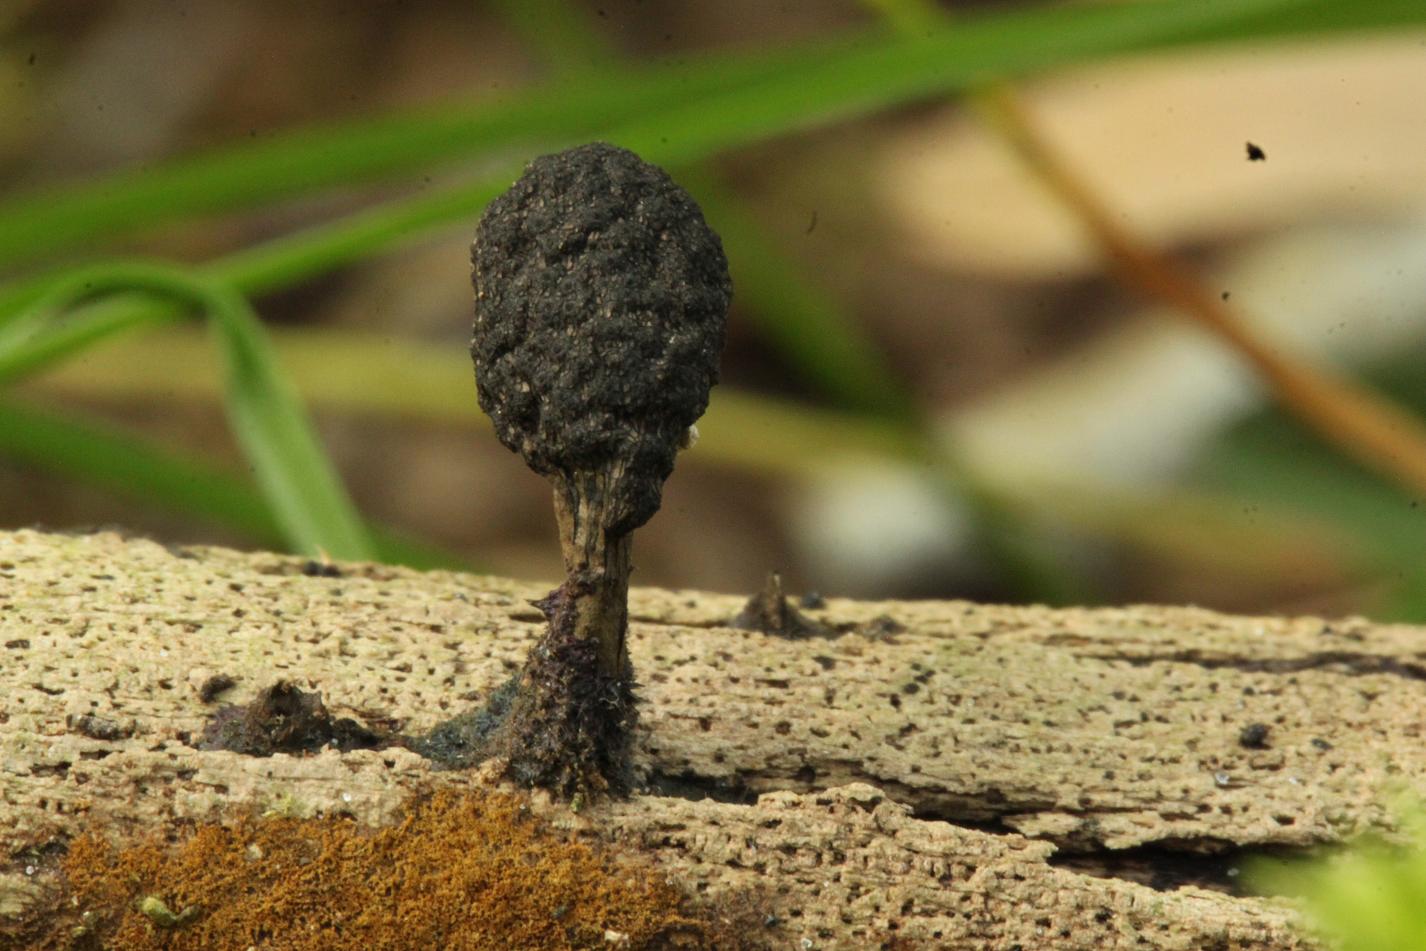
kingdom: Fungi
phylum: Ascomycota
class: Sordariomycetes
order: Xylariales
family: Xylariaceae
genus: Xylaria
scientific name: Xylaria
